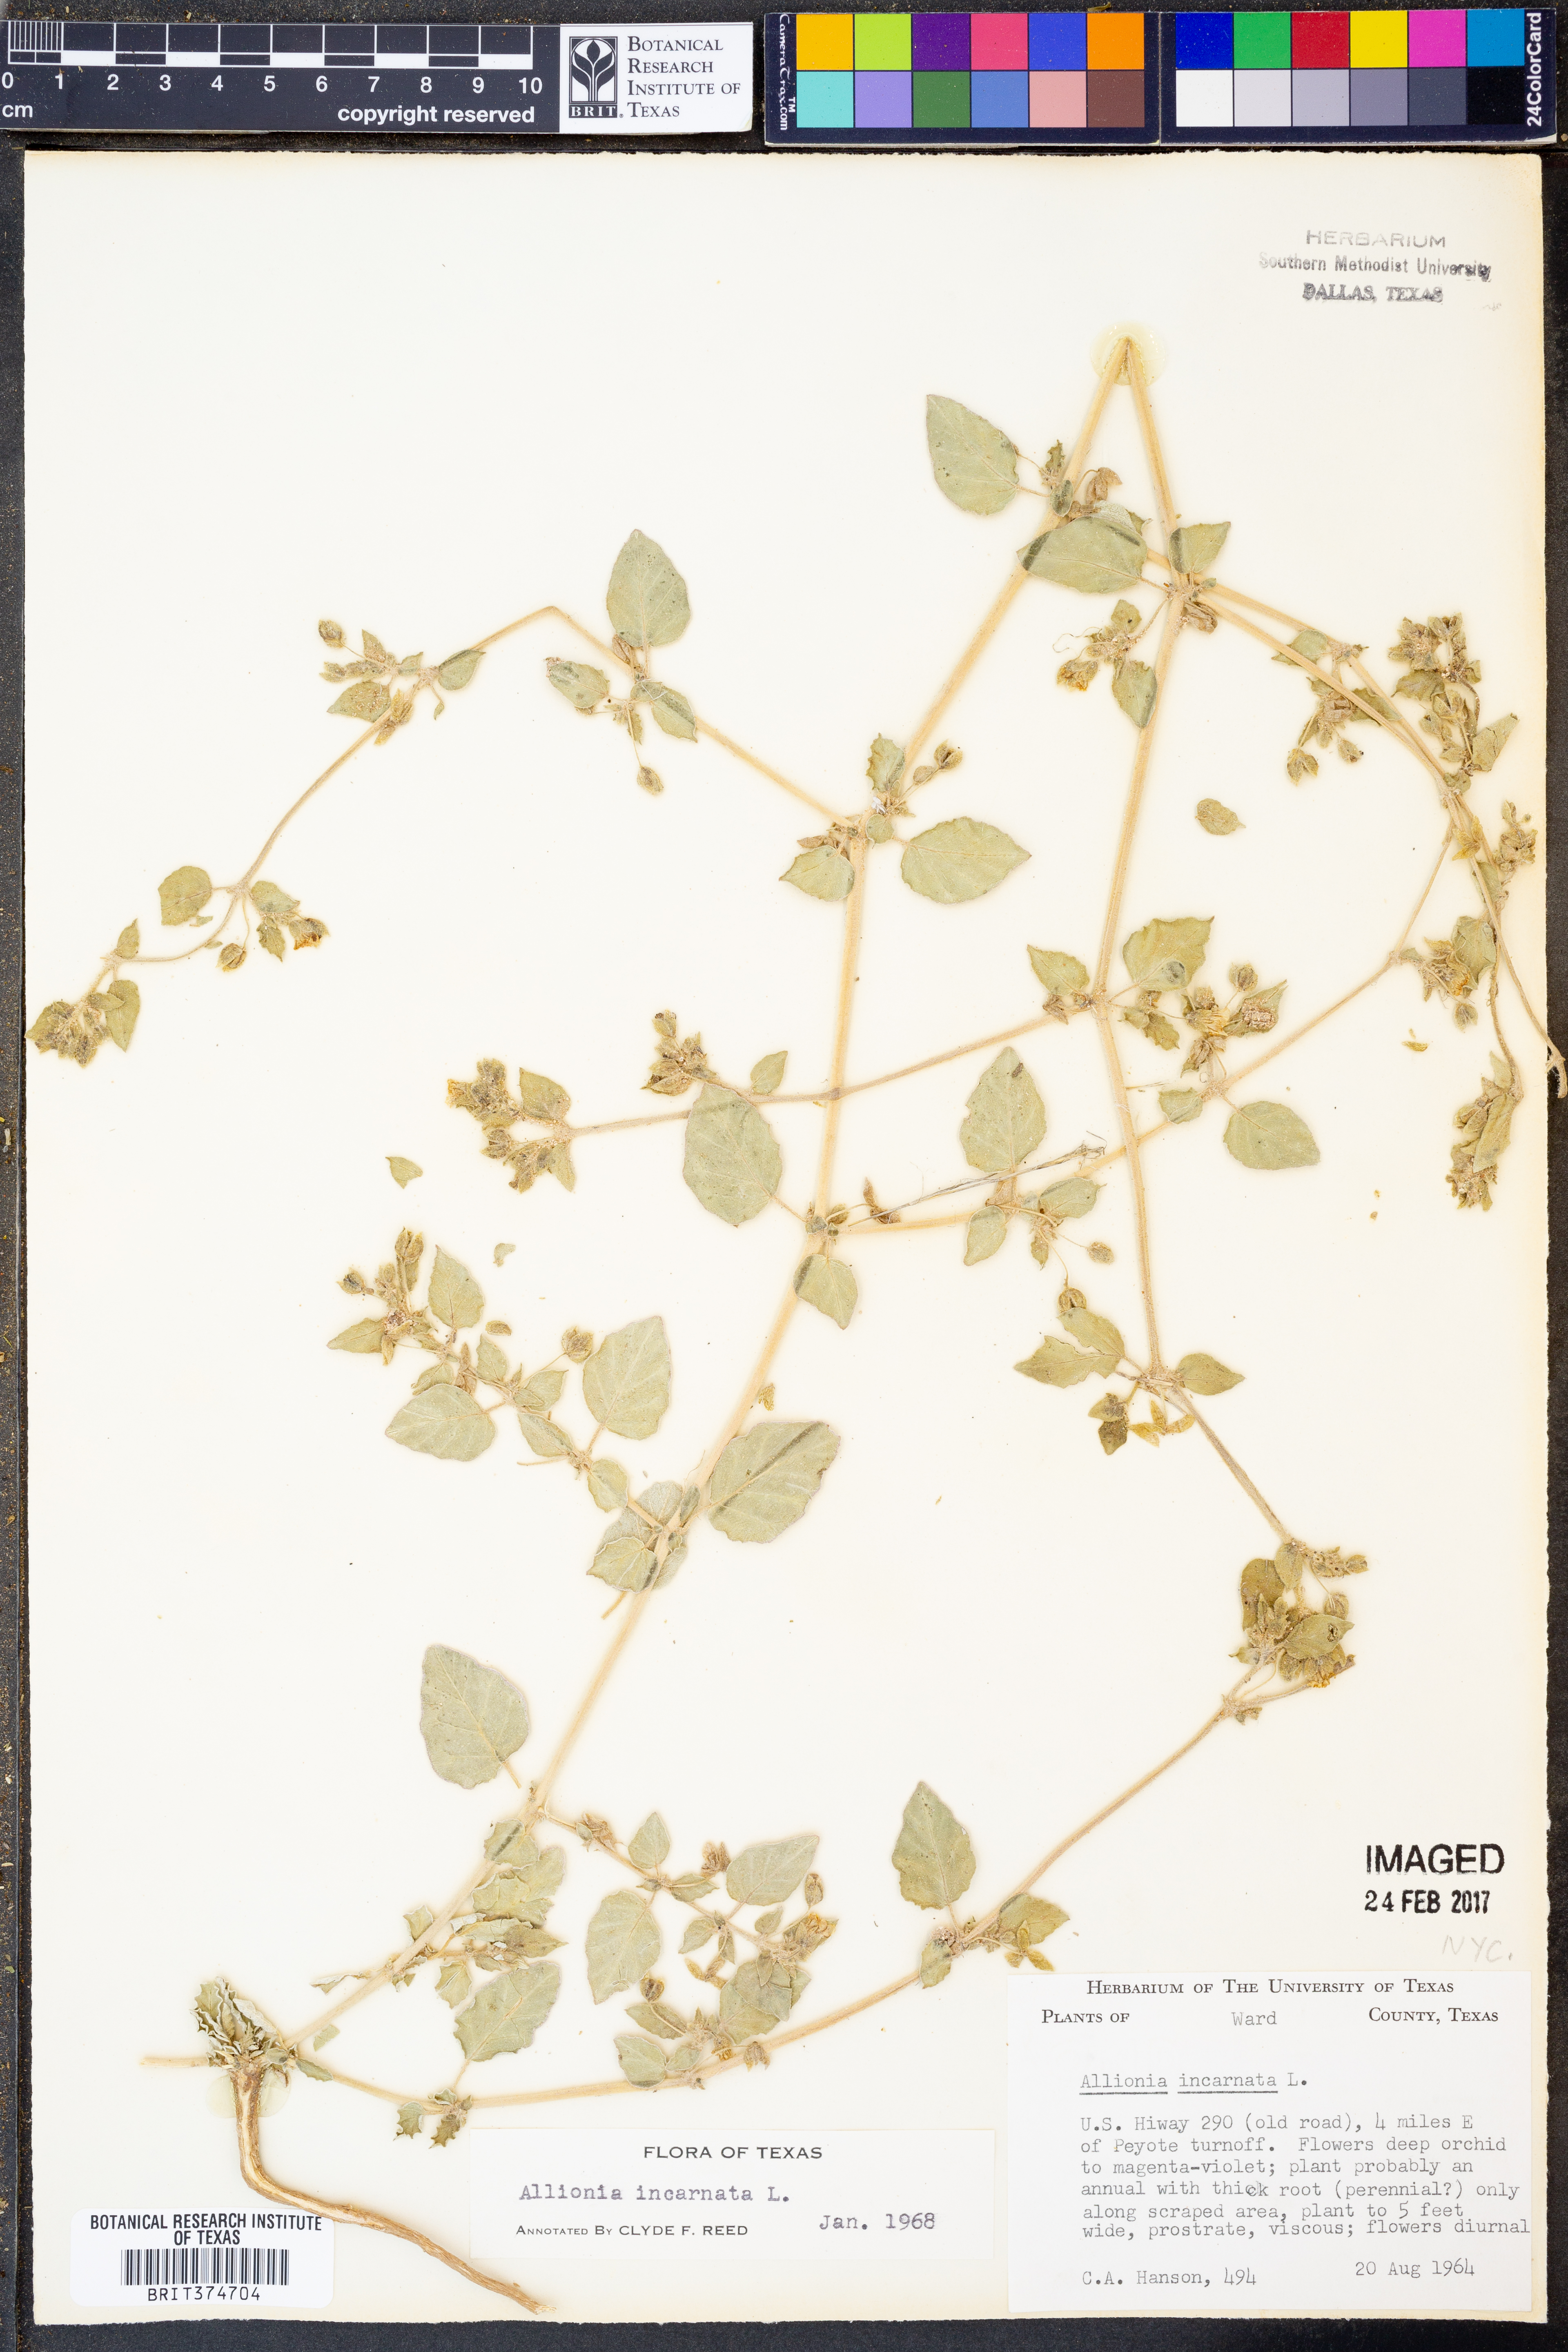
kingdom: Plantae
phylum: Tracheophyta
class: Magnoliopsida
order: Caryophyllales
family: Nyctaginaceae
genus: Allionia
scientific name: Allionia incarnata
